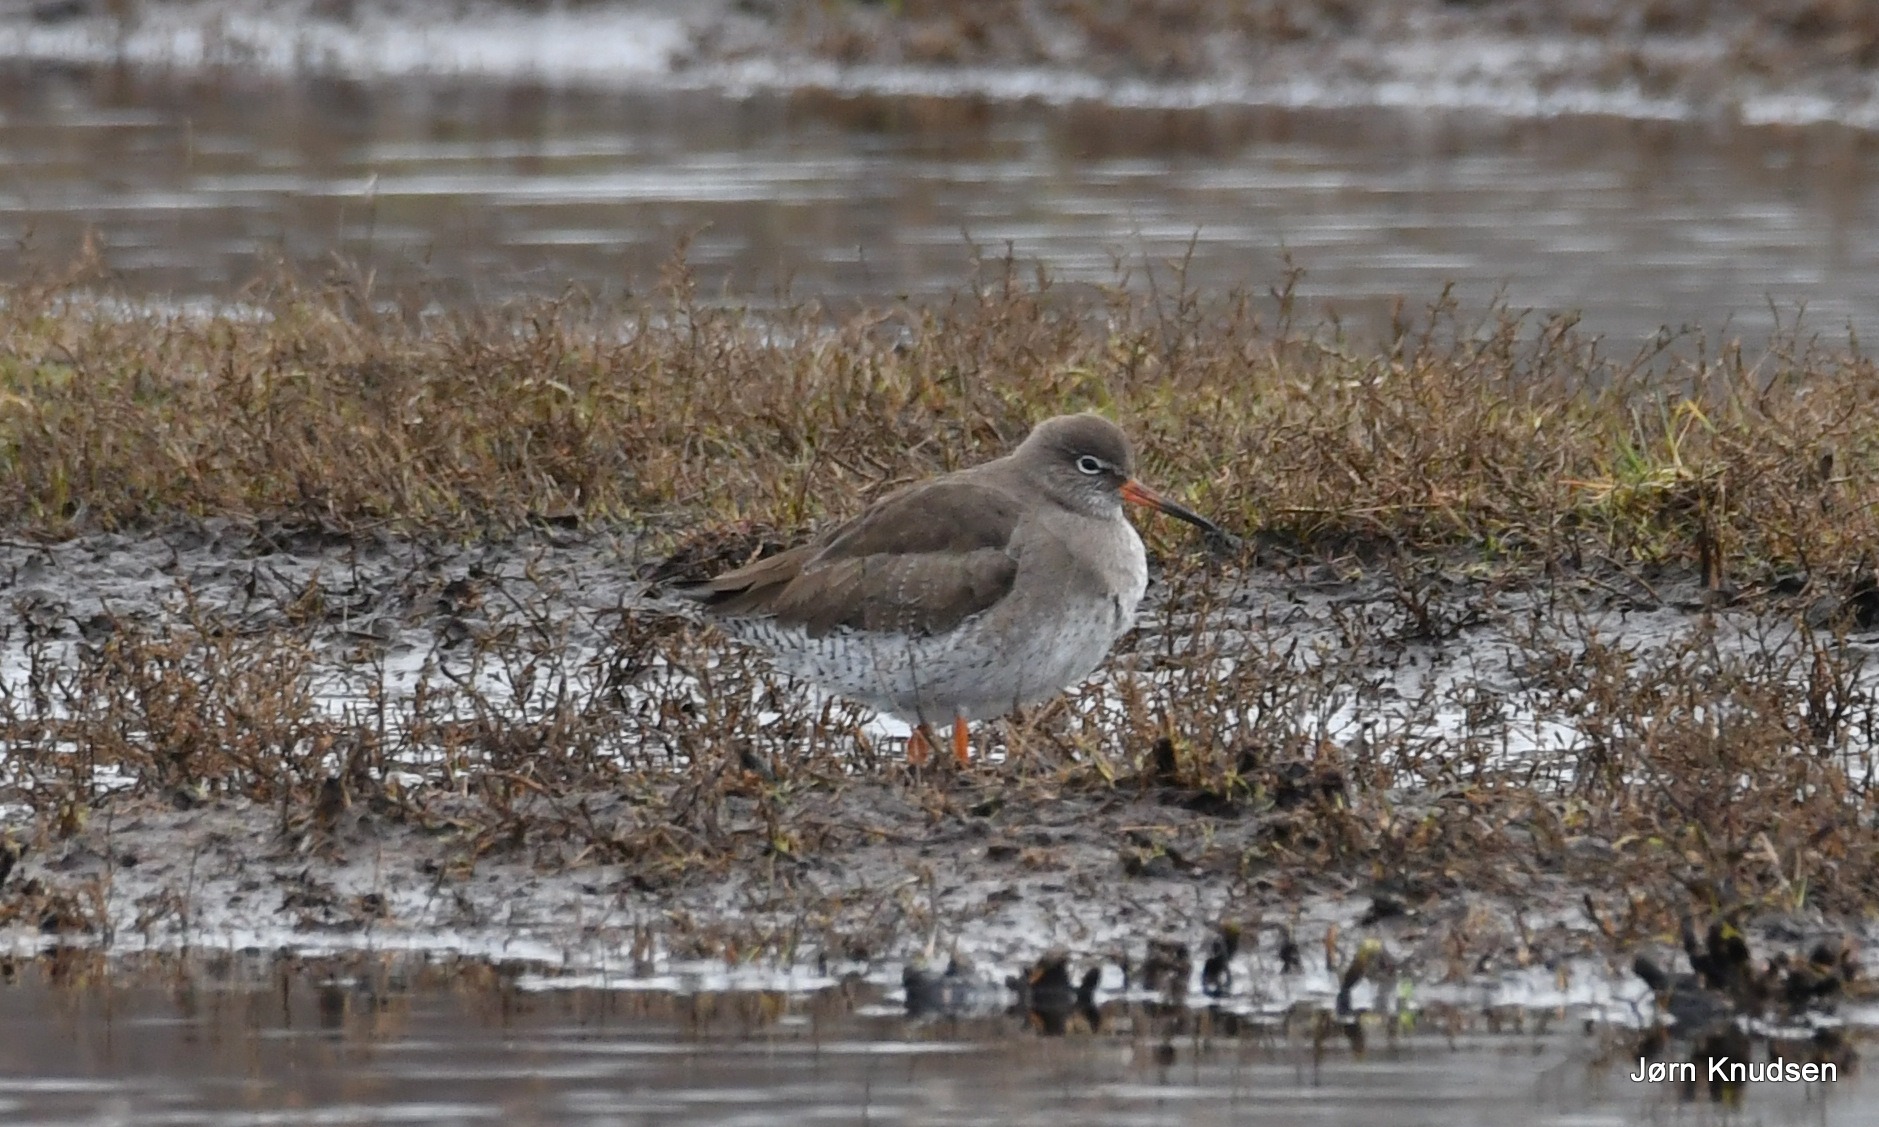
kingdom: Animalia
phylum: Chordata
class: Aves
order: Charadriiformes
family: Scolopacidae
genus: Tringa
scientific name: Tringa totanus
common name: Rødben
